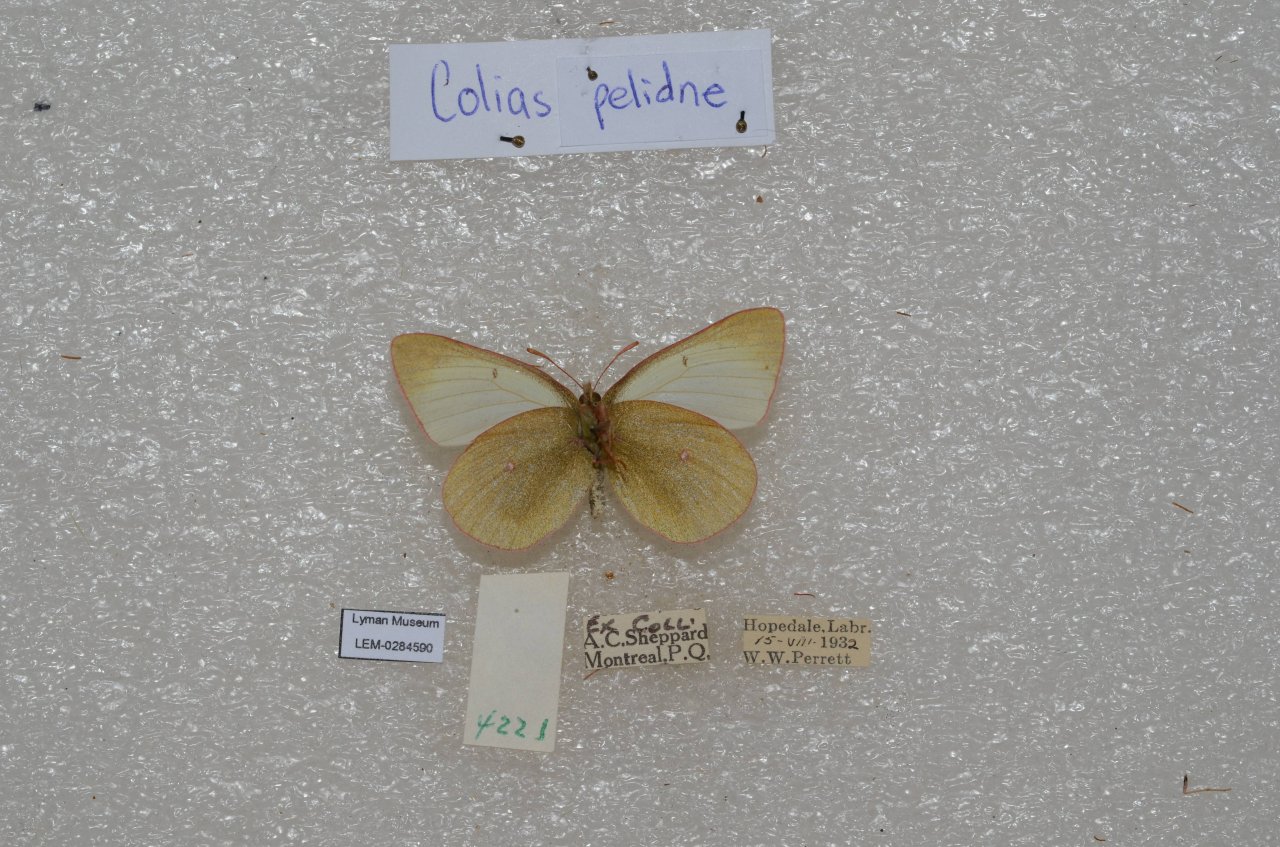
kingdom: Animalia
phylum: Arthropoda
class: Insecta
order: Lepidoptera
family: Pieridae
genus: Colias
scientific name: Colias pelidne
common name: Pelidne Sulphur
